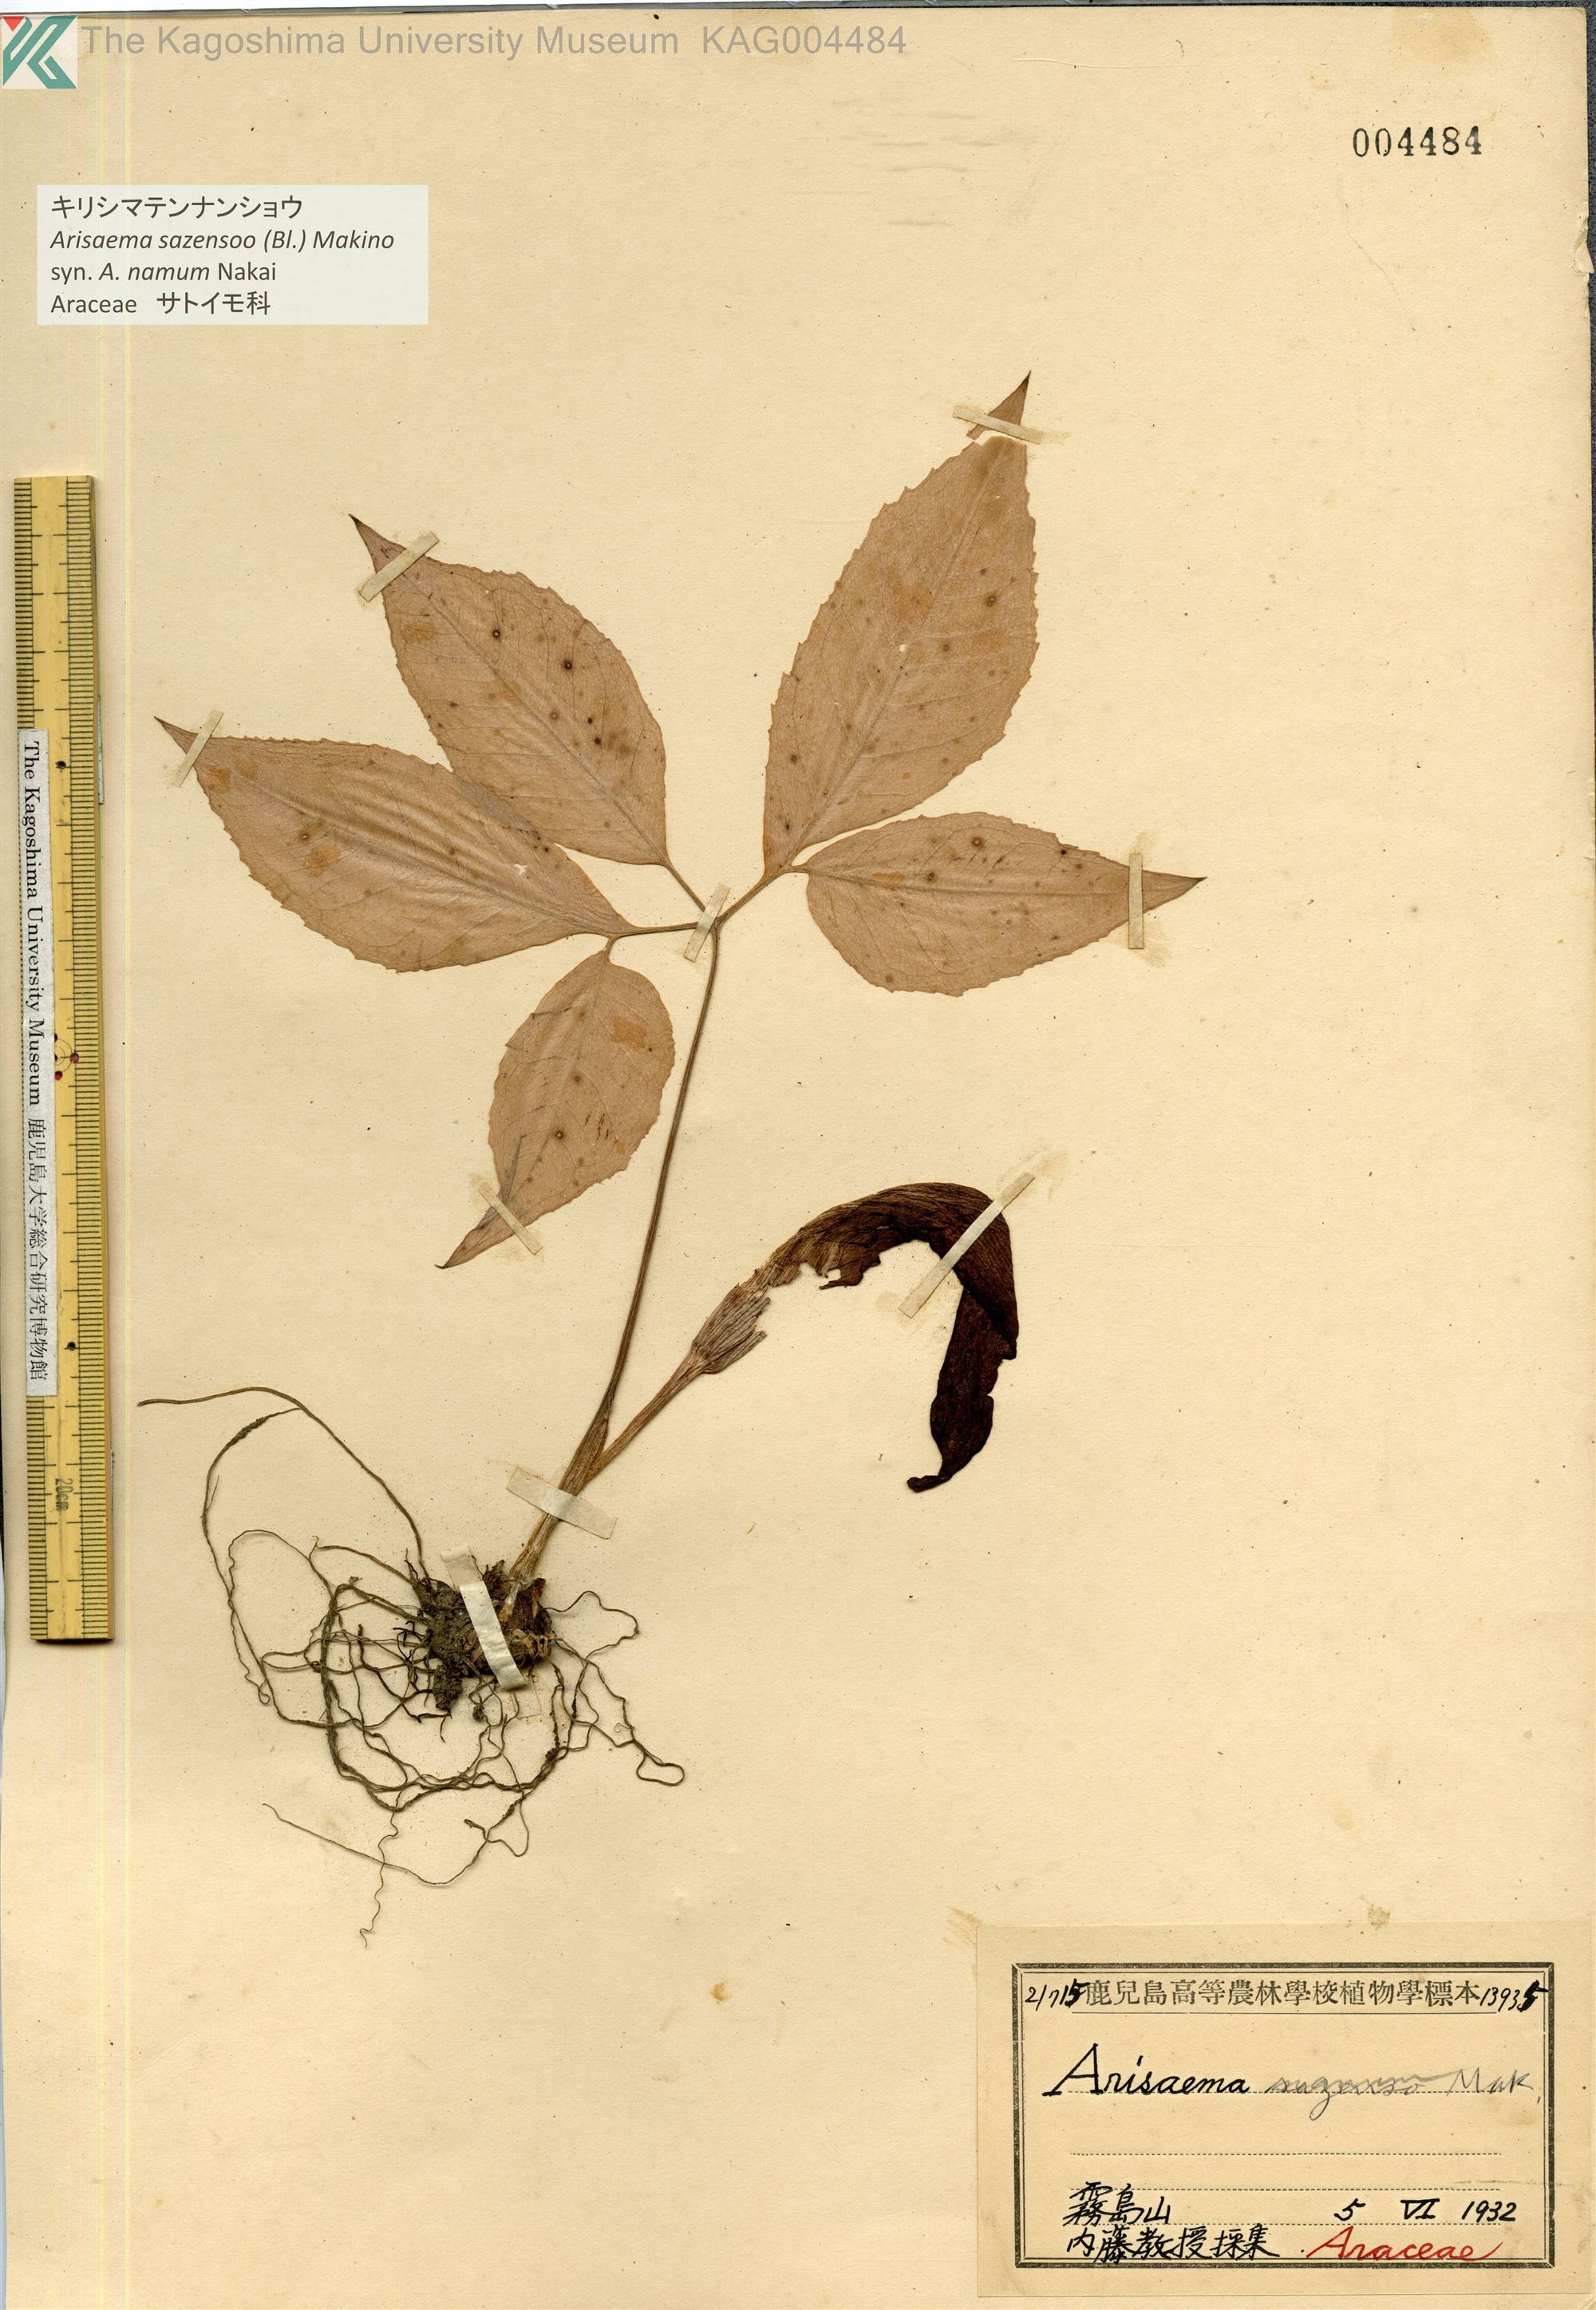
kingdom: Plantae
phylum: Tracheophyta
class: Liliopsida
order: Alismatales
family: Araceae
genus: Arisaema
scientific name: Arisaema sazensoo
